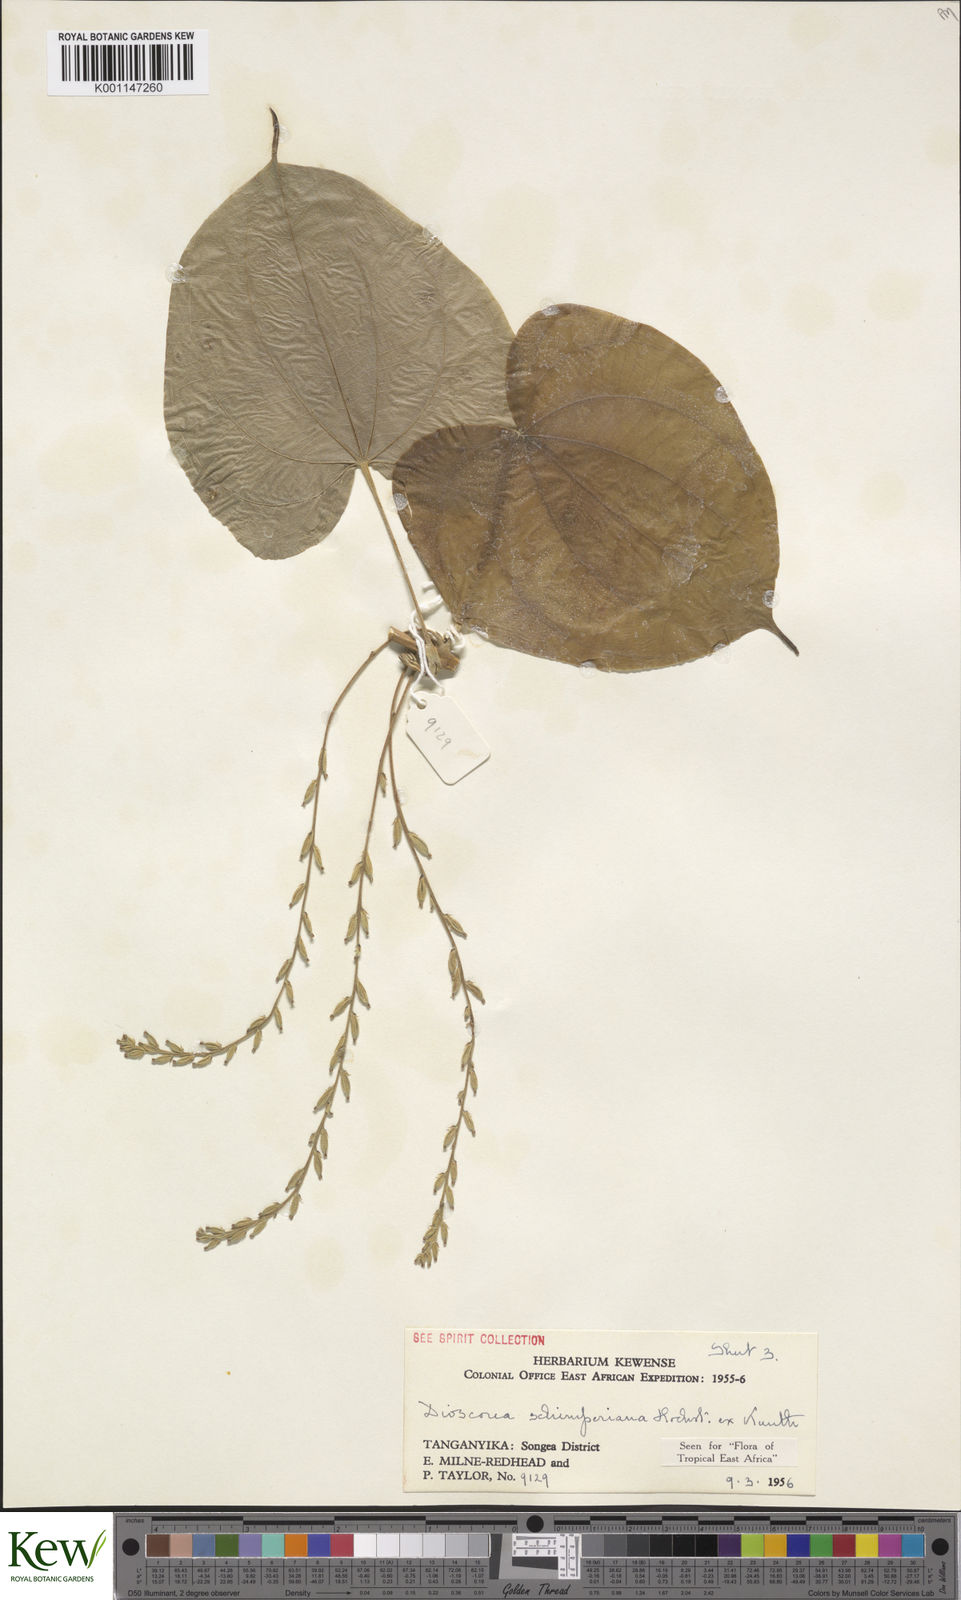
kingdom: Plantae
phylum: Tracheophyta
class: Liliopsida
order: Dioscoreales
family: Dioscoreaceae
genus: Dioscorea
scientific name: Dioscorea schimperiana
